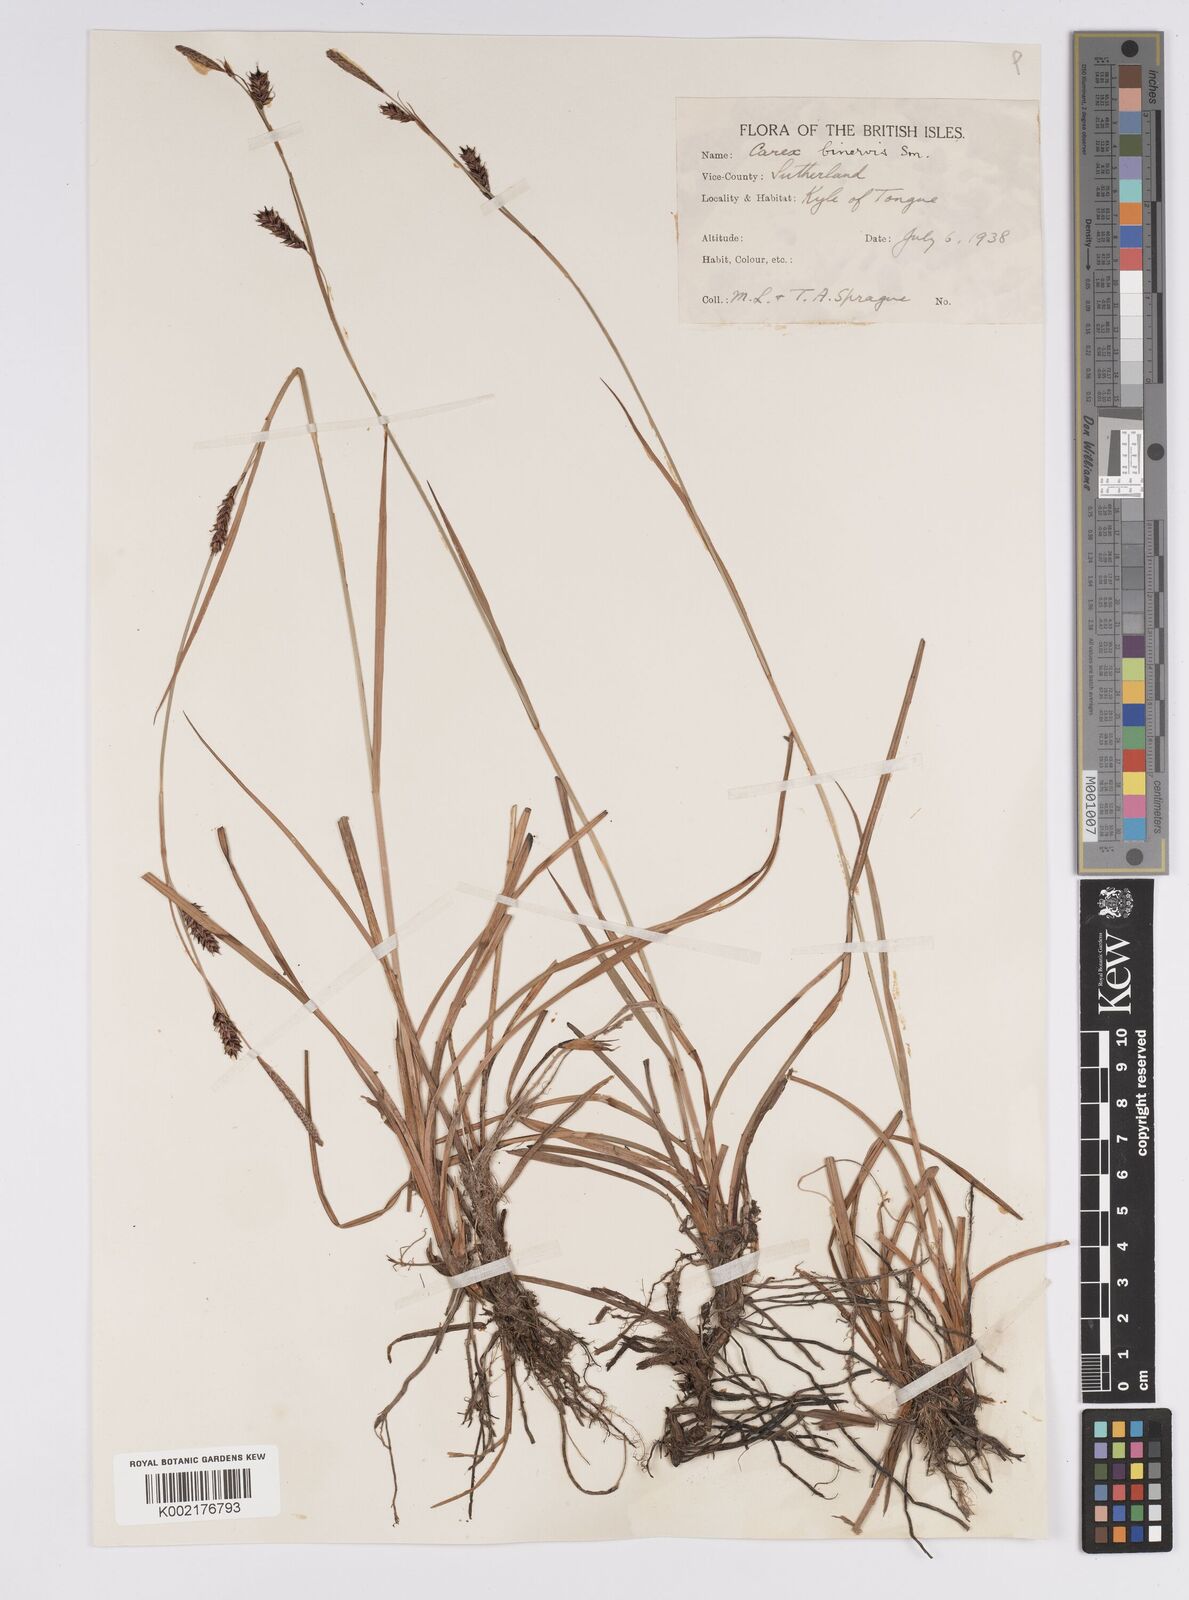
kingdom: Plantae
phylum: Tracheophyta
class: Liliopsida
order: Poales
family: Cyperaceae
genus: Carex
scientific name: Carex binervis
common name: Green-ribbed sedge
